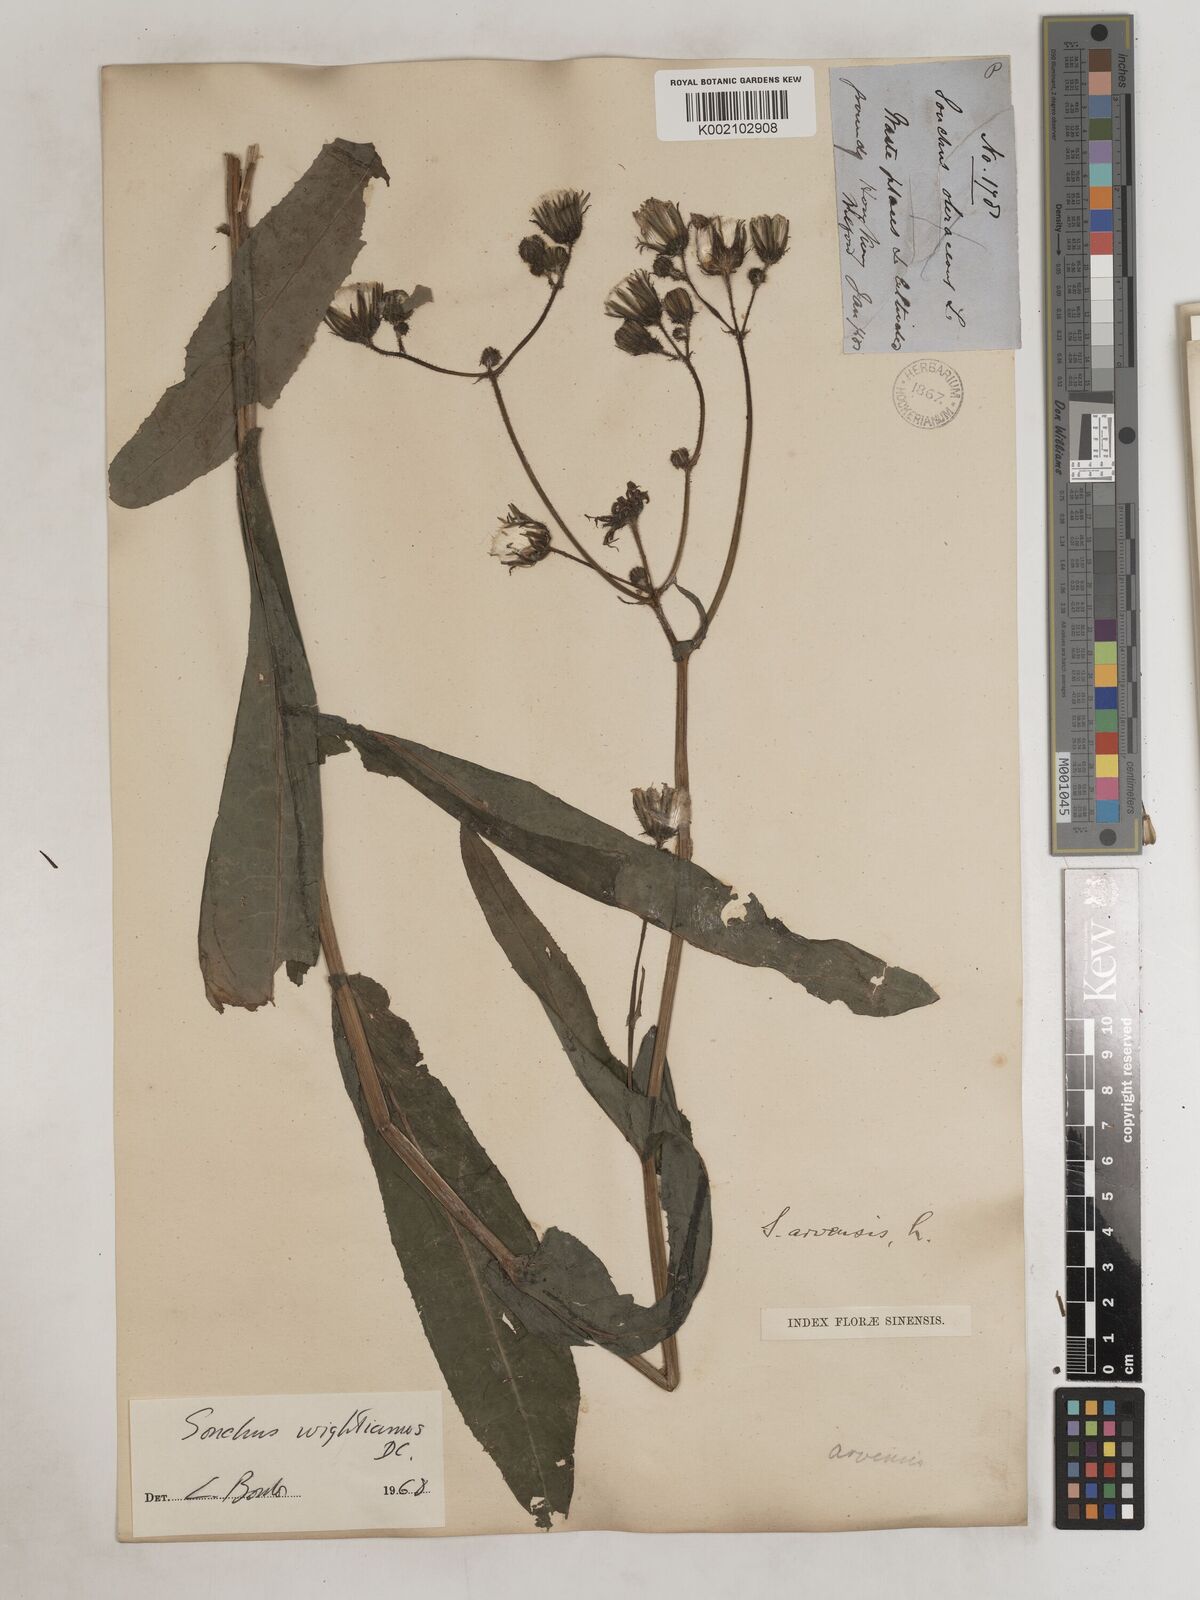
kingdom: Plantae
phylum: Tracheophyta
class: Magnoliopsida
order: Asterales
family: Asteraceae
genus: Sonchus
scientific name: Sonchus wightianus
